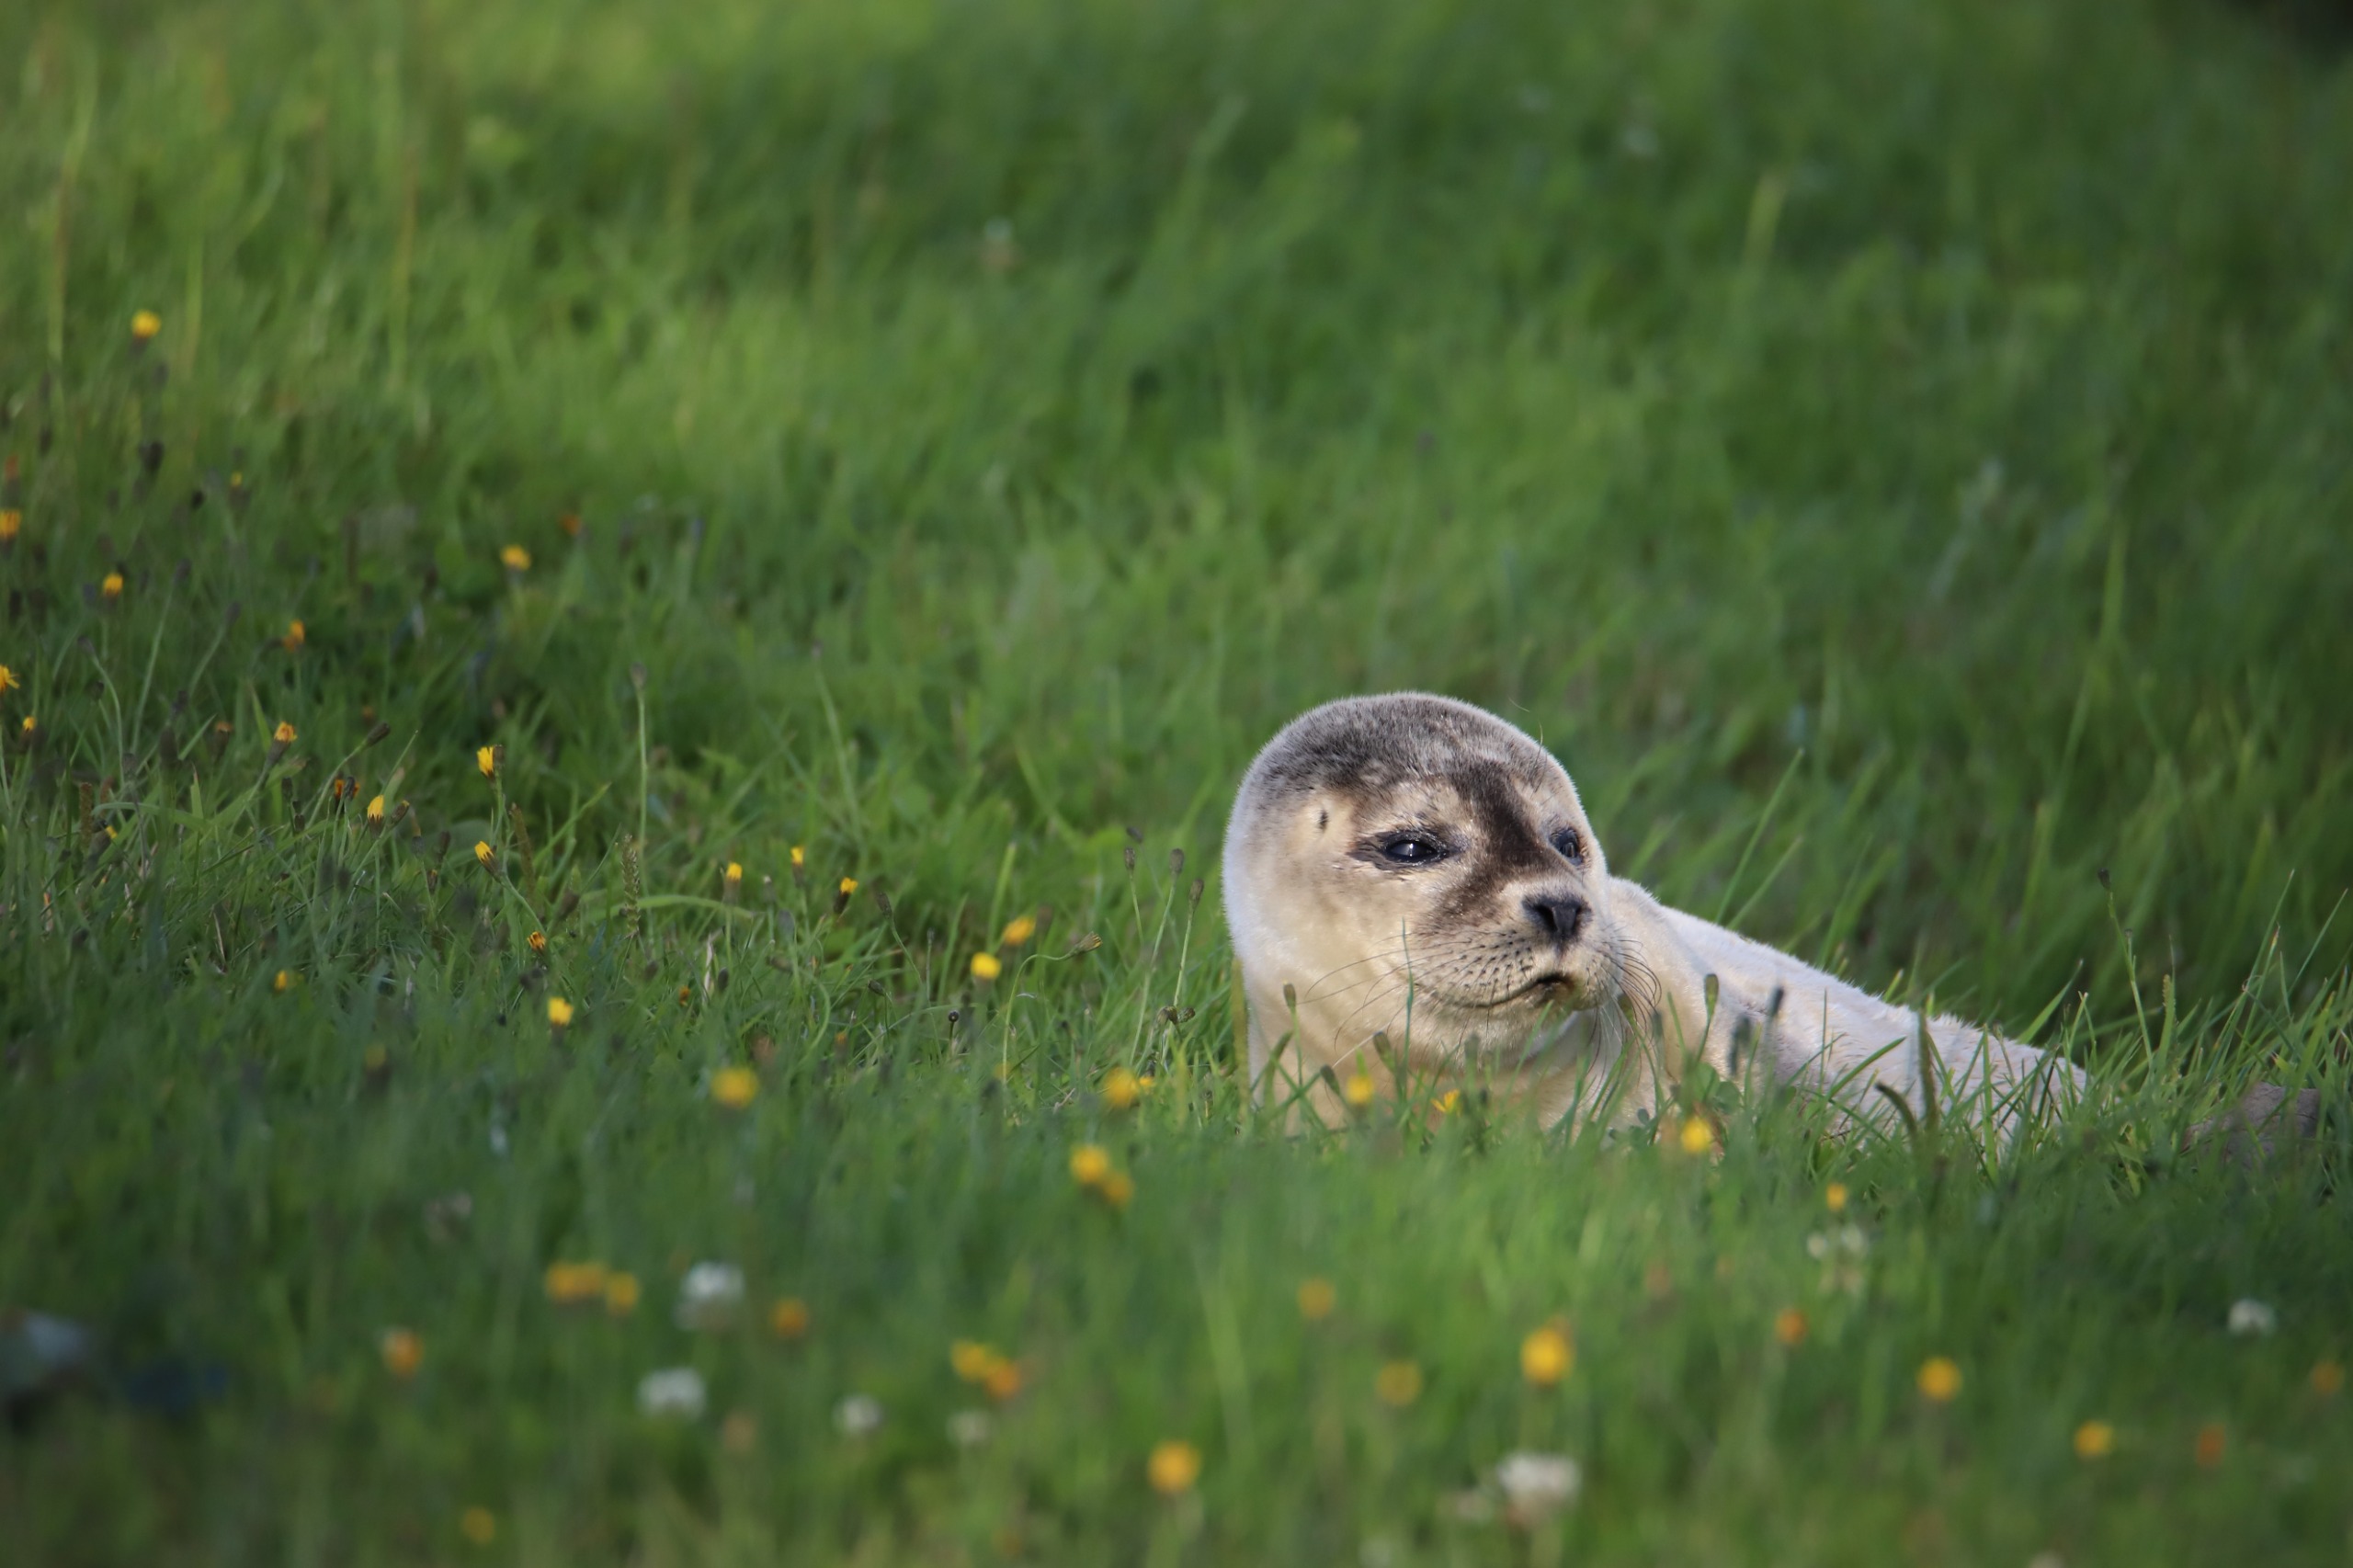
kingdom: Animalia
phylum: Chordata
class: Mammalia
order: Carnivora
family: Phocidae
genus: Phoca
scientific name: Phoca vitulina
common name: Spættet sæl
